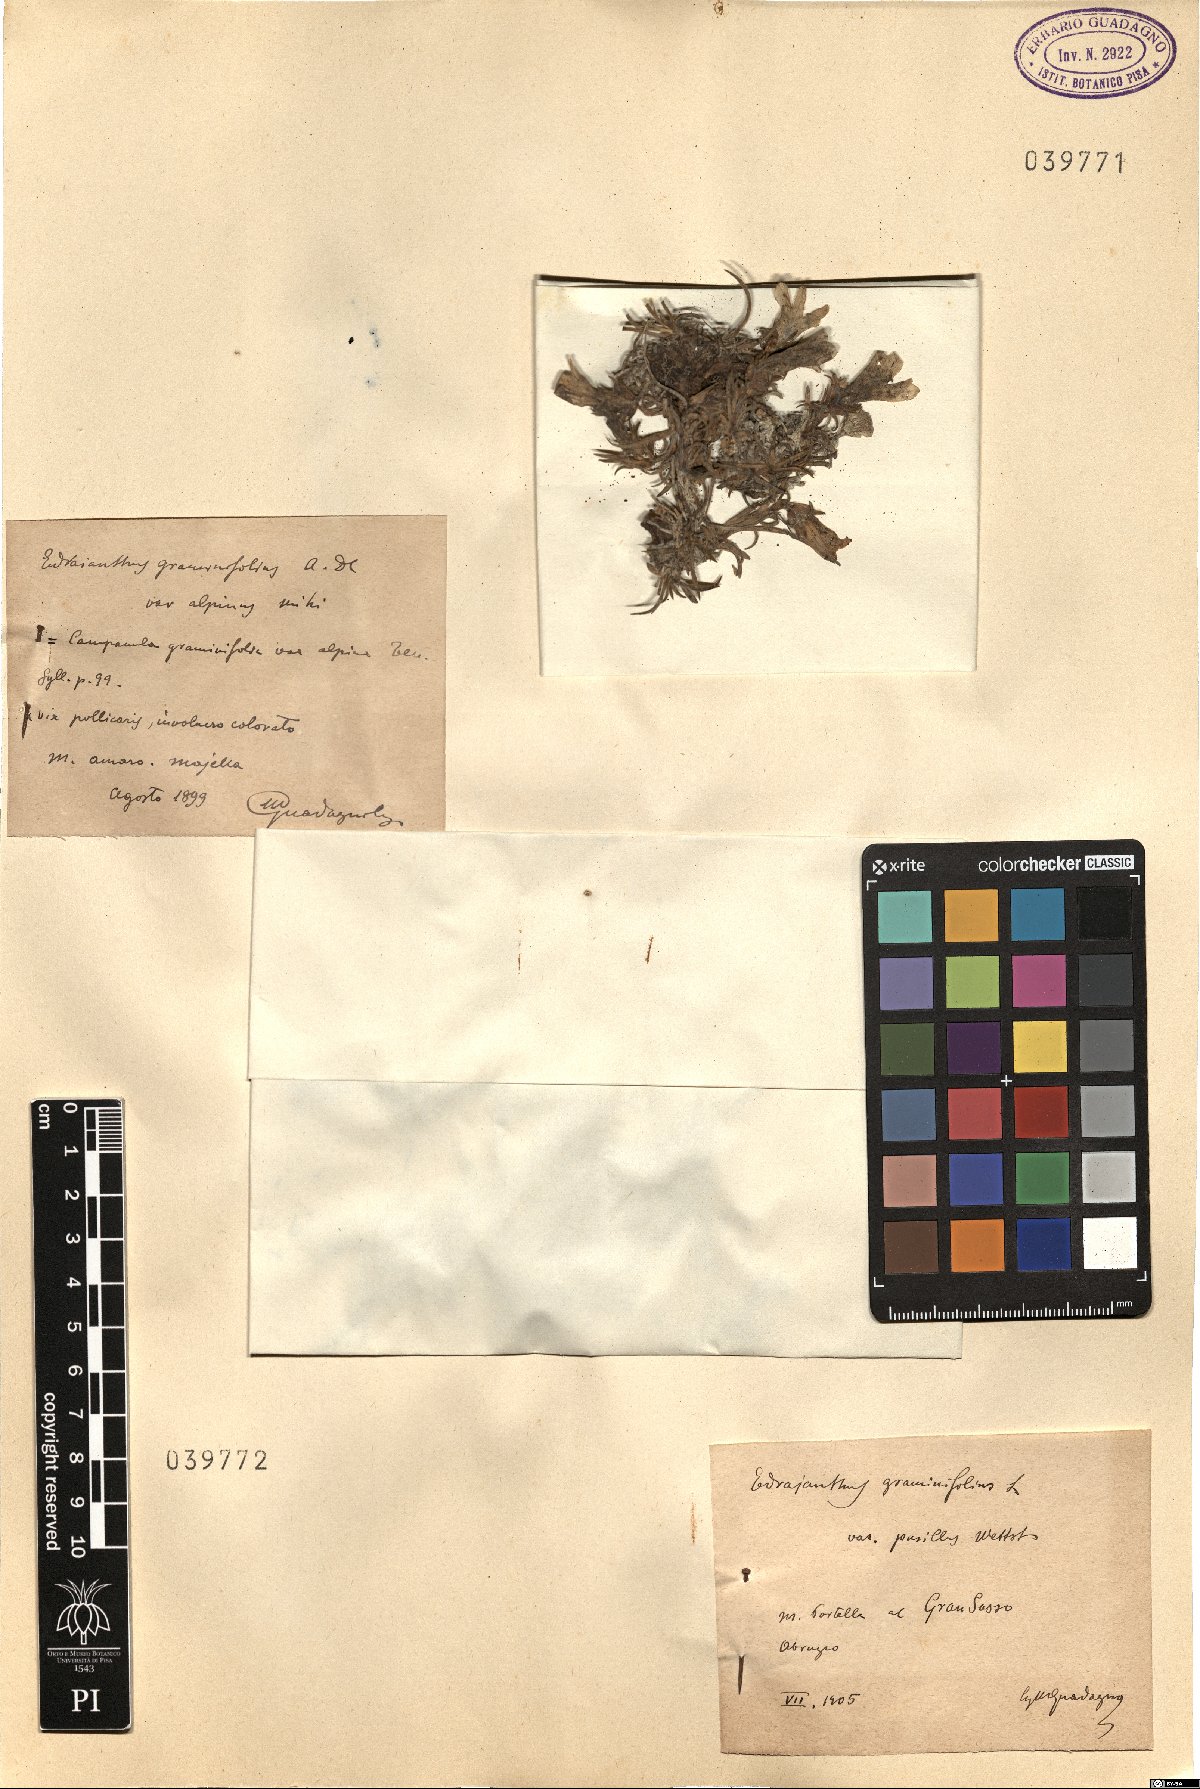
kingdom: Plantae
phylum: Tracheophyta
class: Magnoliopsida
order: Asterales
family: Campanulaceae
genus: Edraianthus
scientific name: Edraianthus graminifolius
